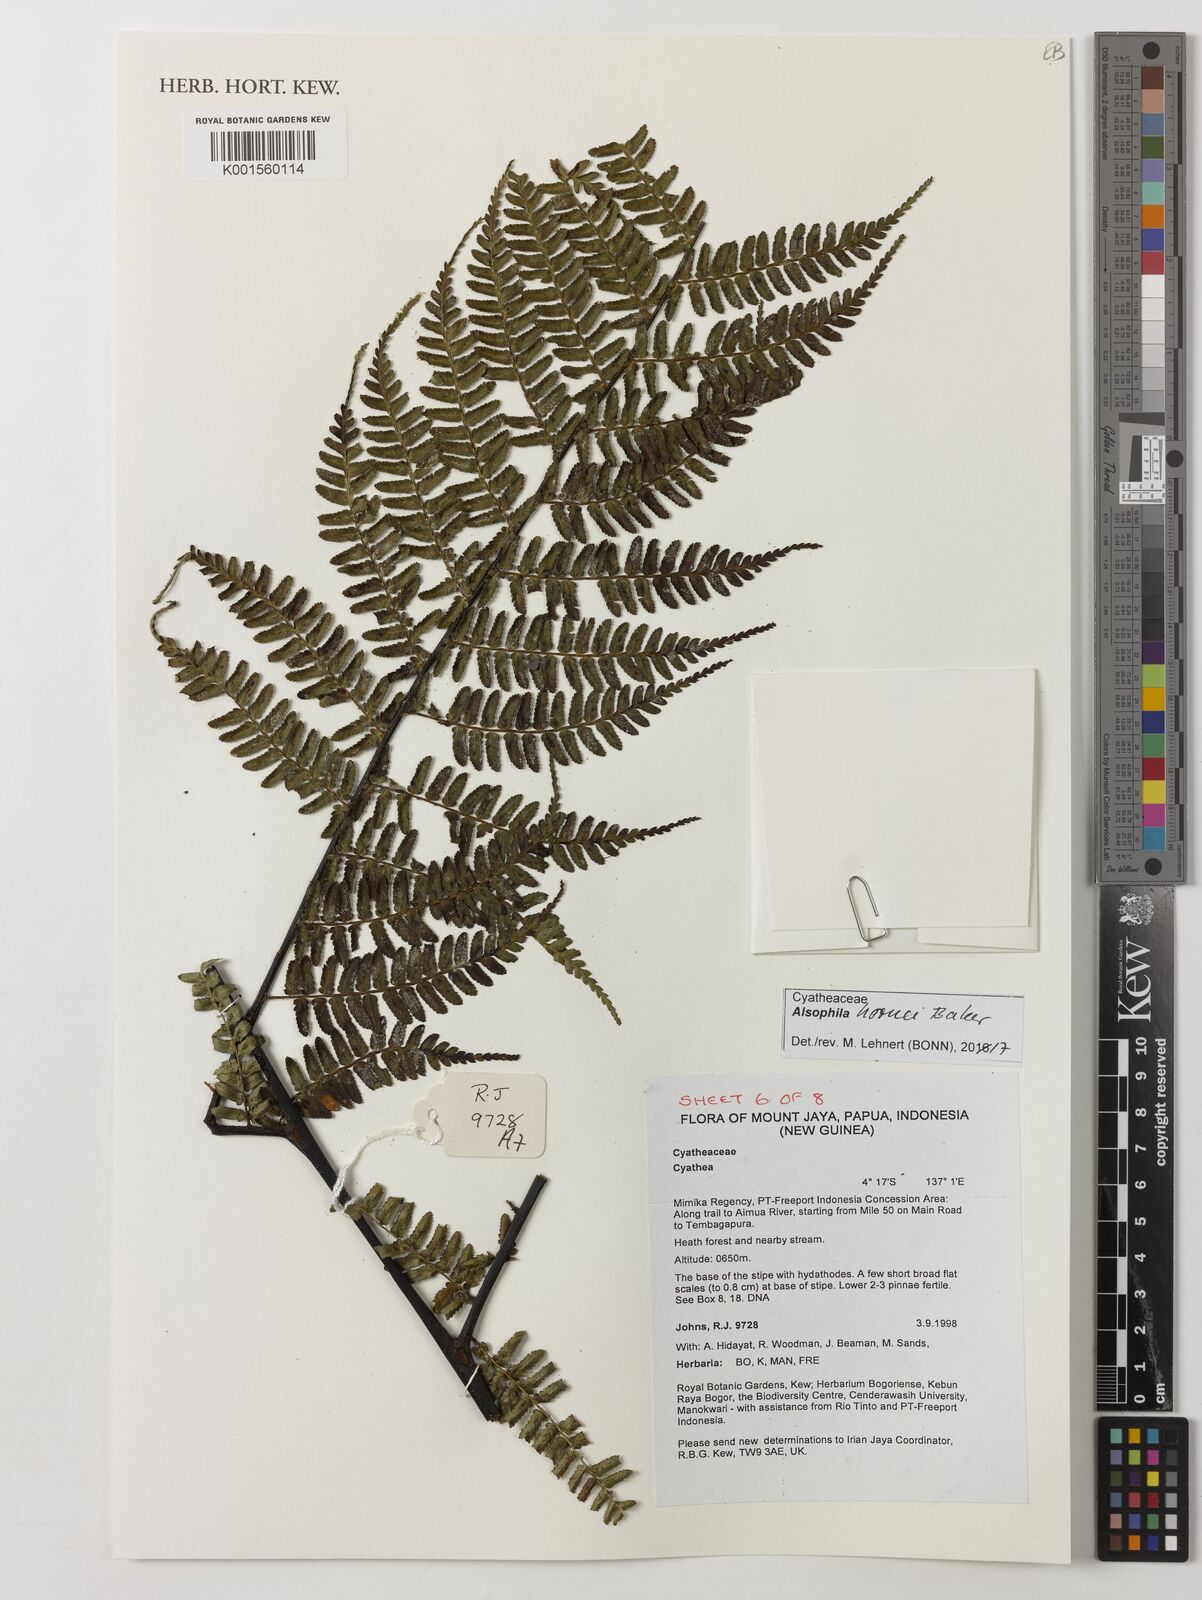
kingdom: Plantae
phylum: Tracheophyta
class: Polypodiopsida
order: Cyatheales
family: Cyatheaceae
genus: Gymnosphaera
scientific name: Gymnosphaera hornei
